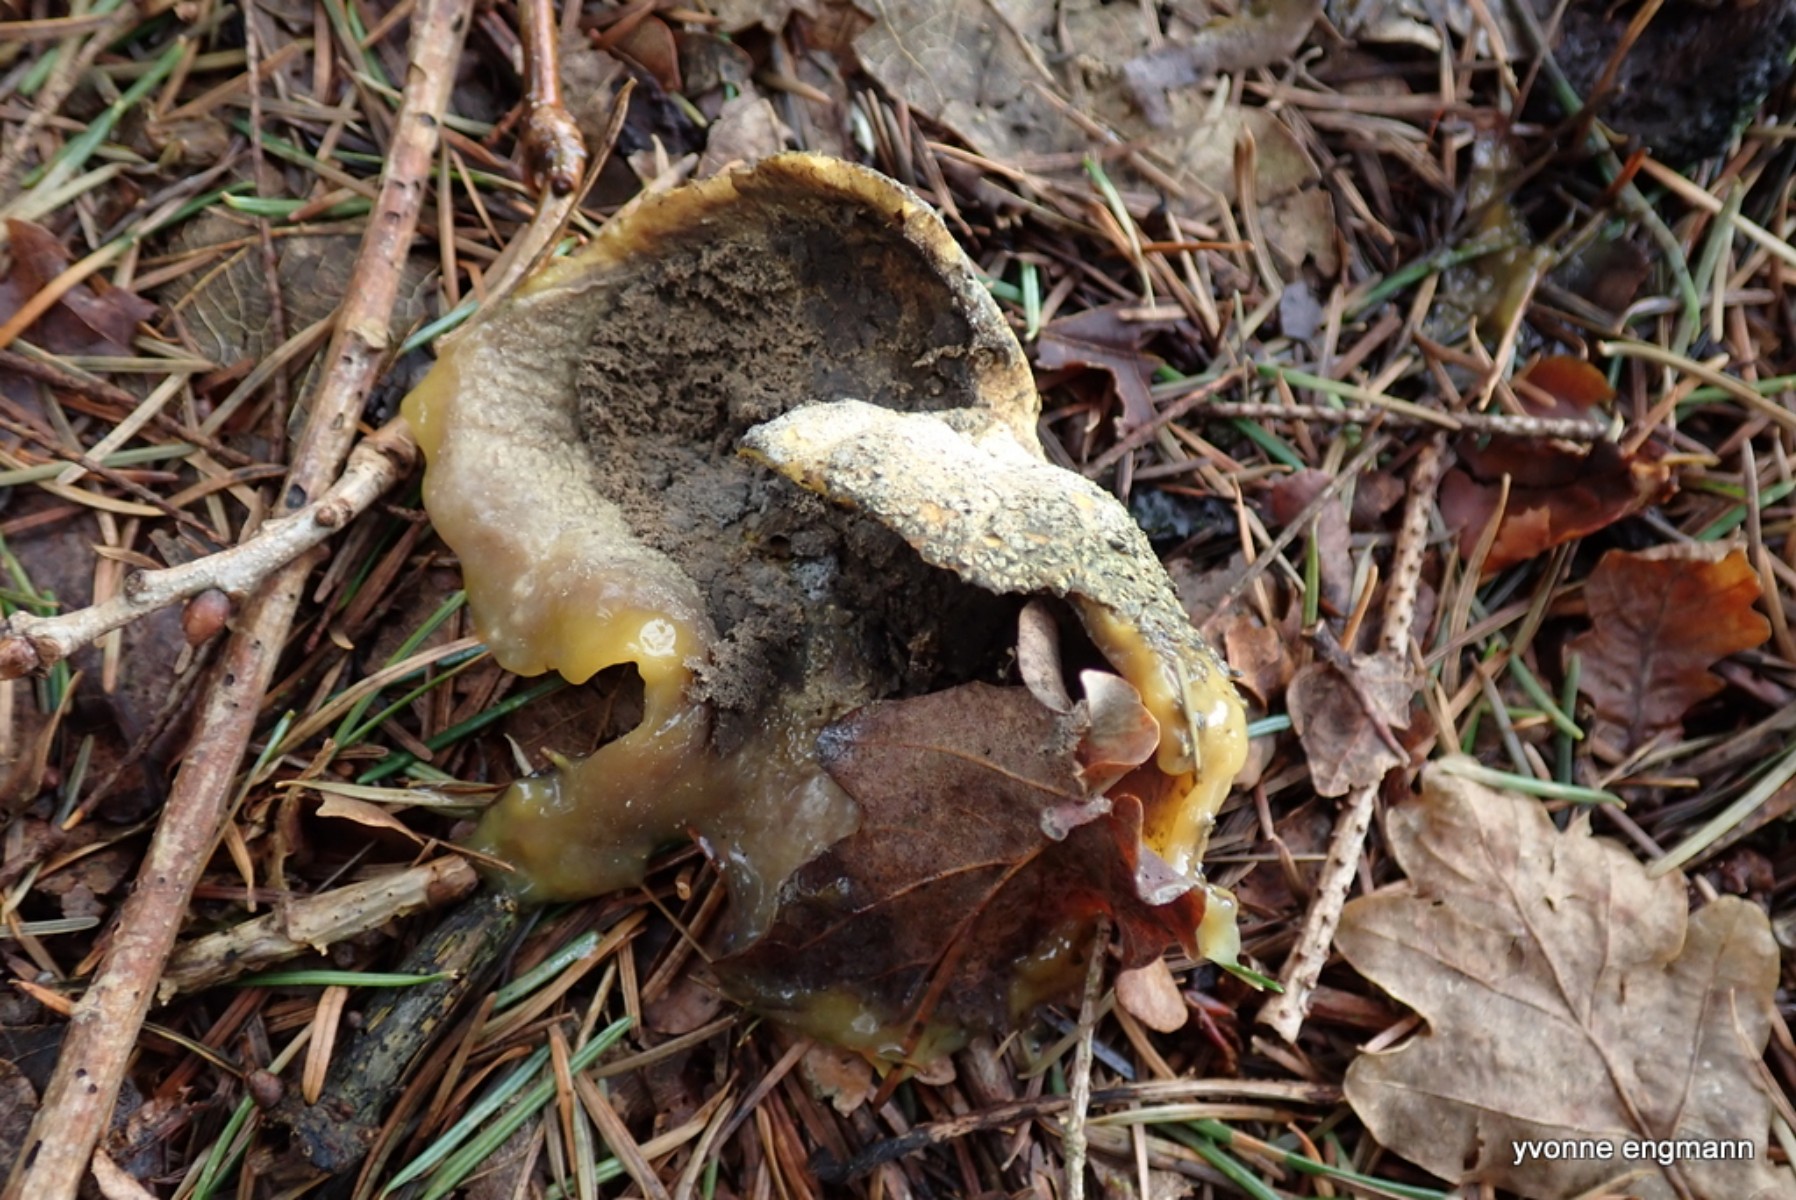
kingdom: Fungi
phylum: Basidiomycota
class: Agaricomycetes
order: Boletales
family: Sclerodermataceae
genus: Scleroderma
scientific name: Scleroderma citrinum
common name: almindelig bruskbold
